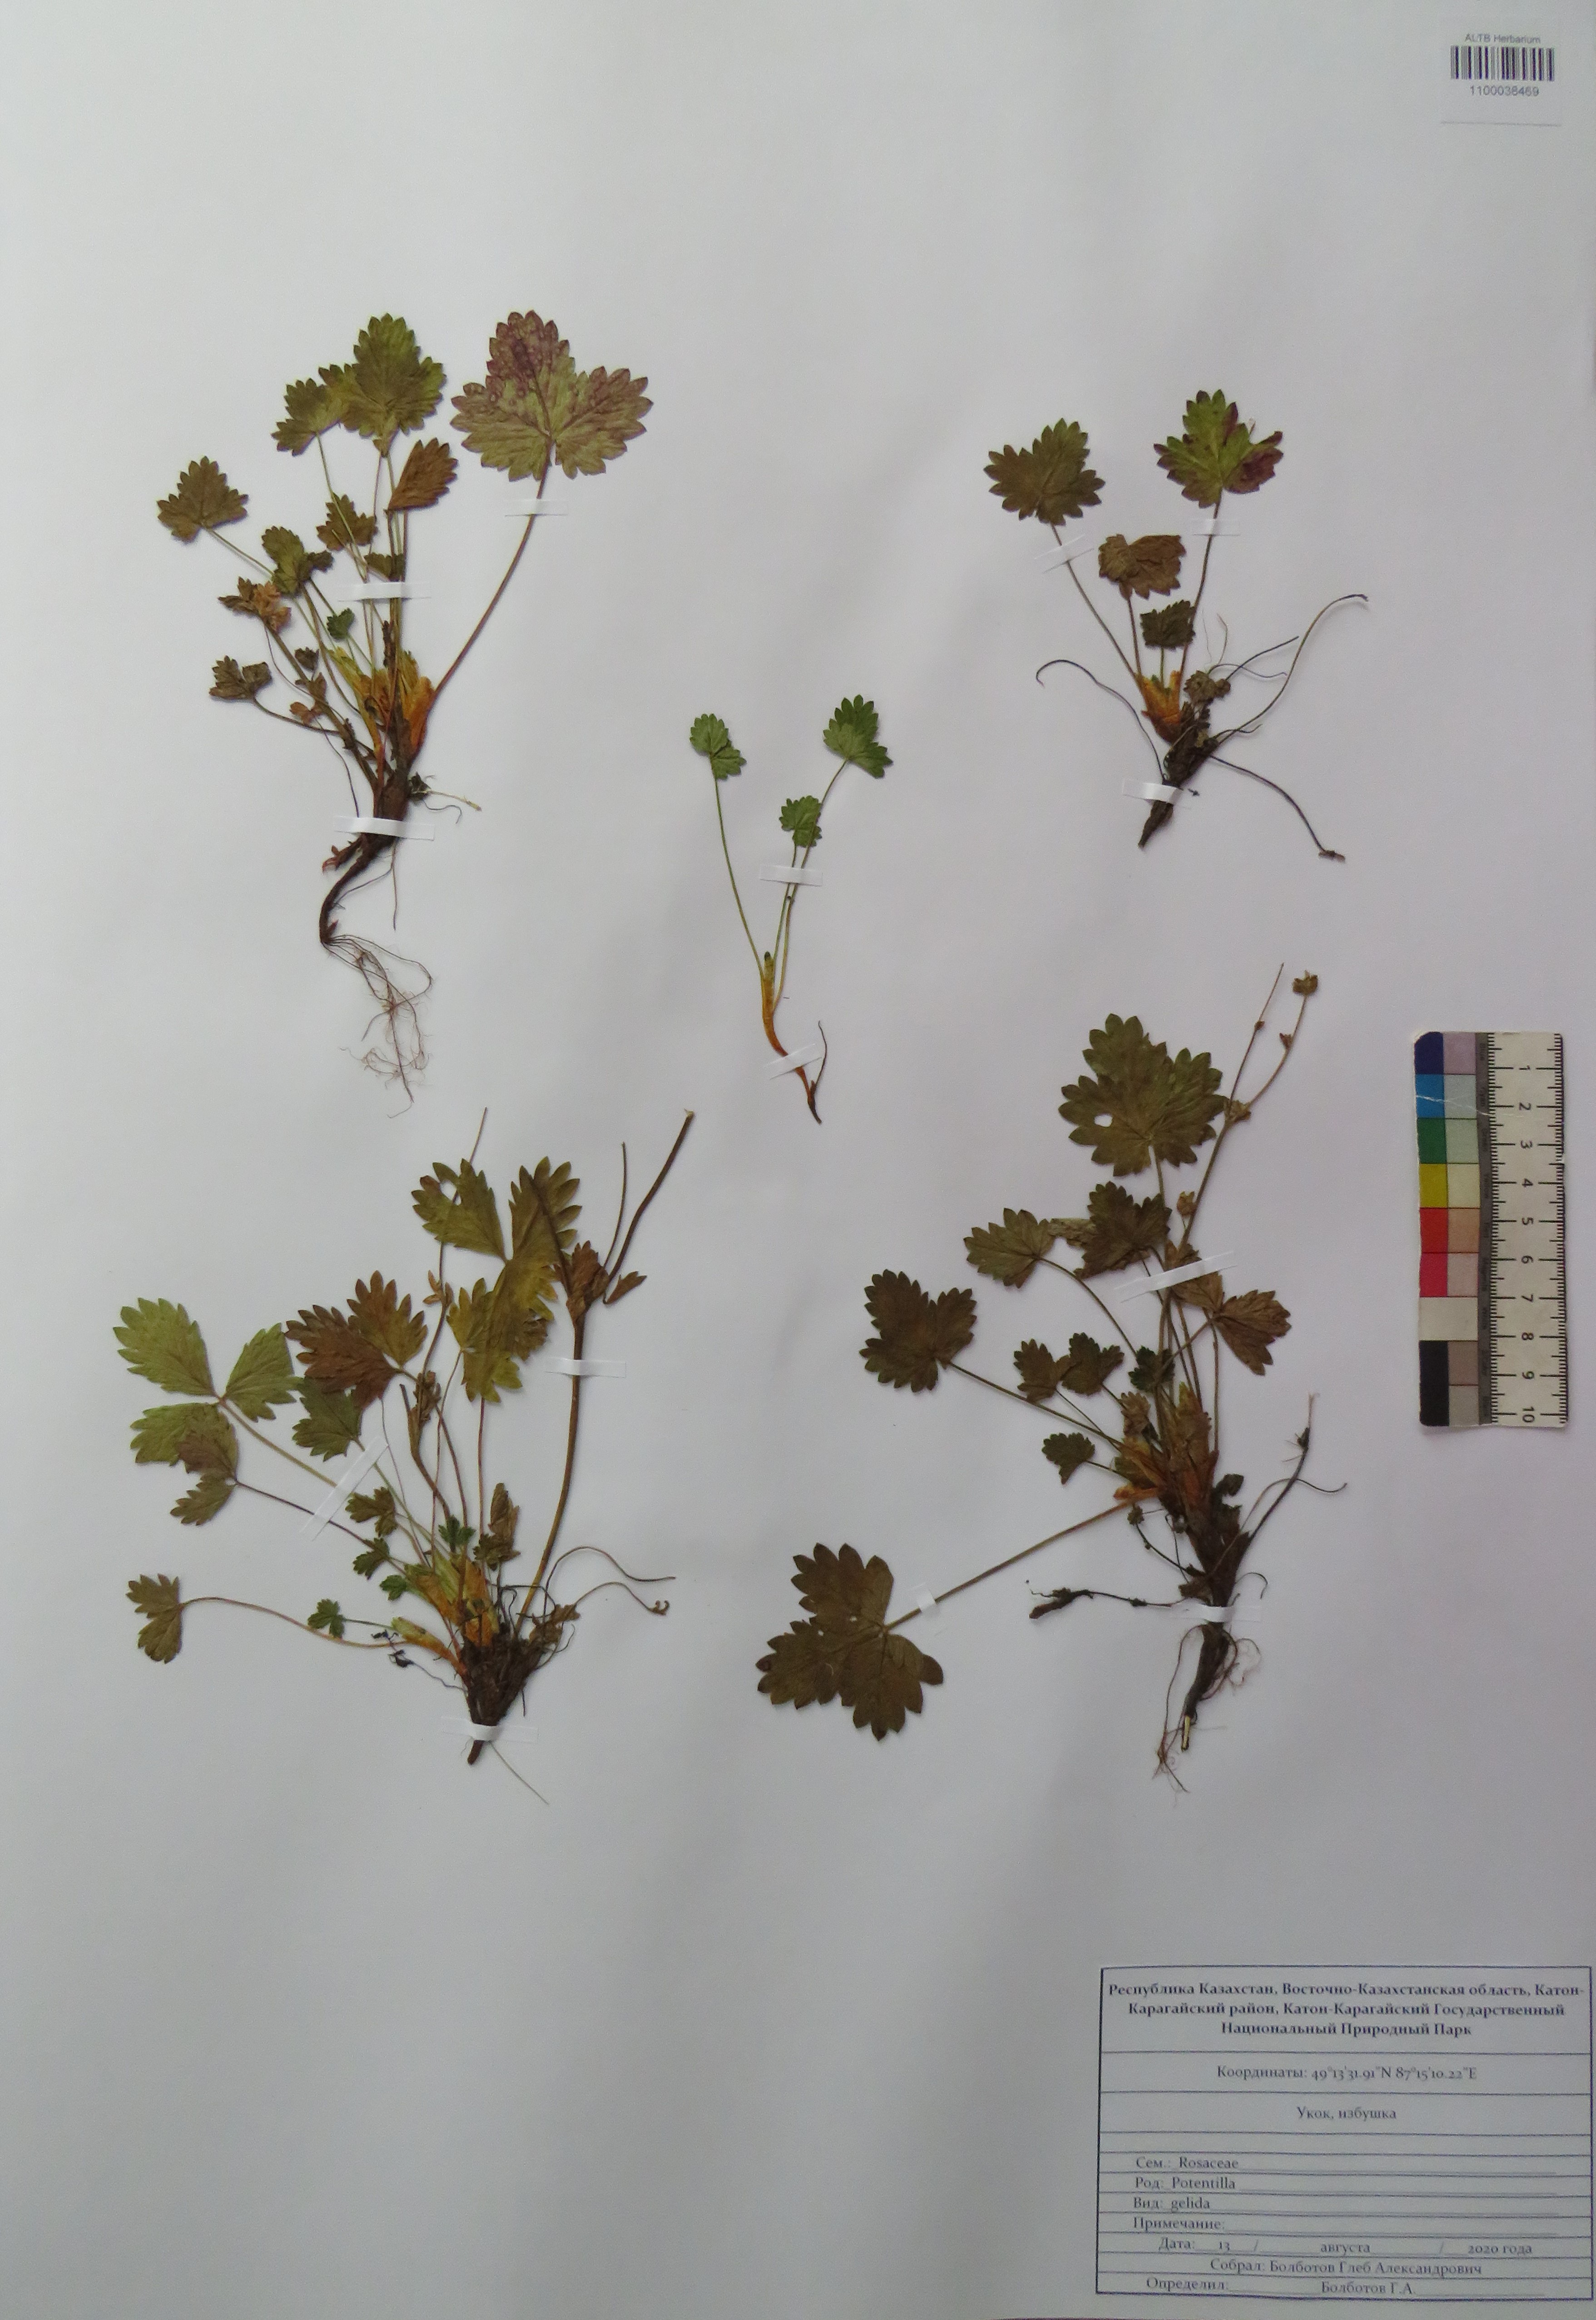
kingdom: Plantae
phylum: Tracheophyta
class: Magnoliopsida
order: Rosales
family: Rosaceae
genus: Potentilla
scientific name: Potentilla crantzii
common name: Alpine cinquefoil
